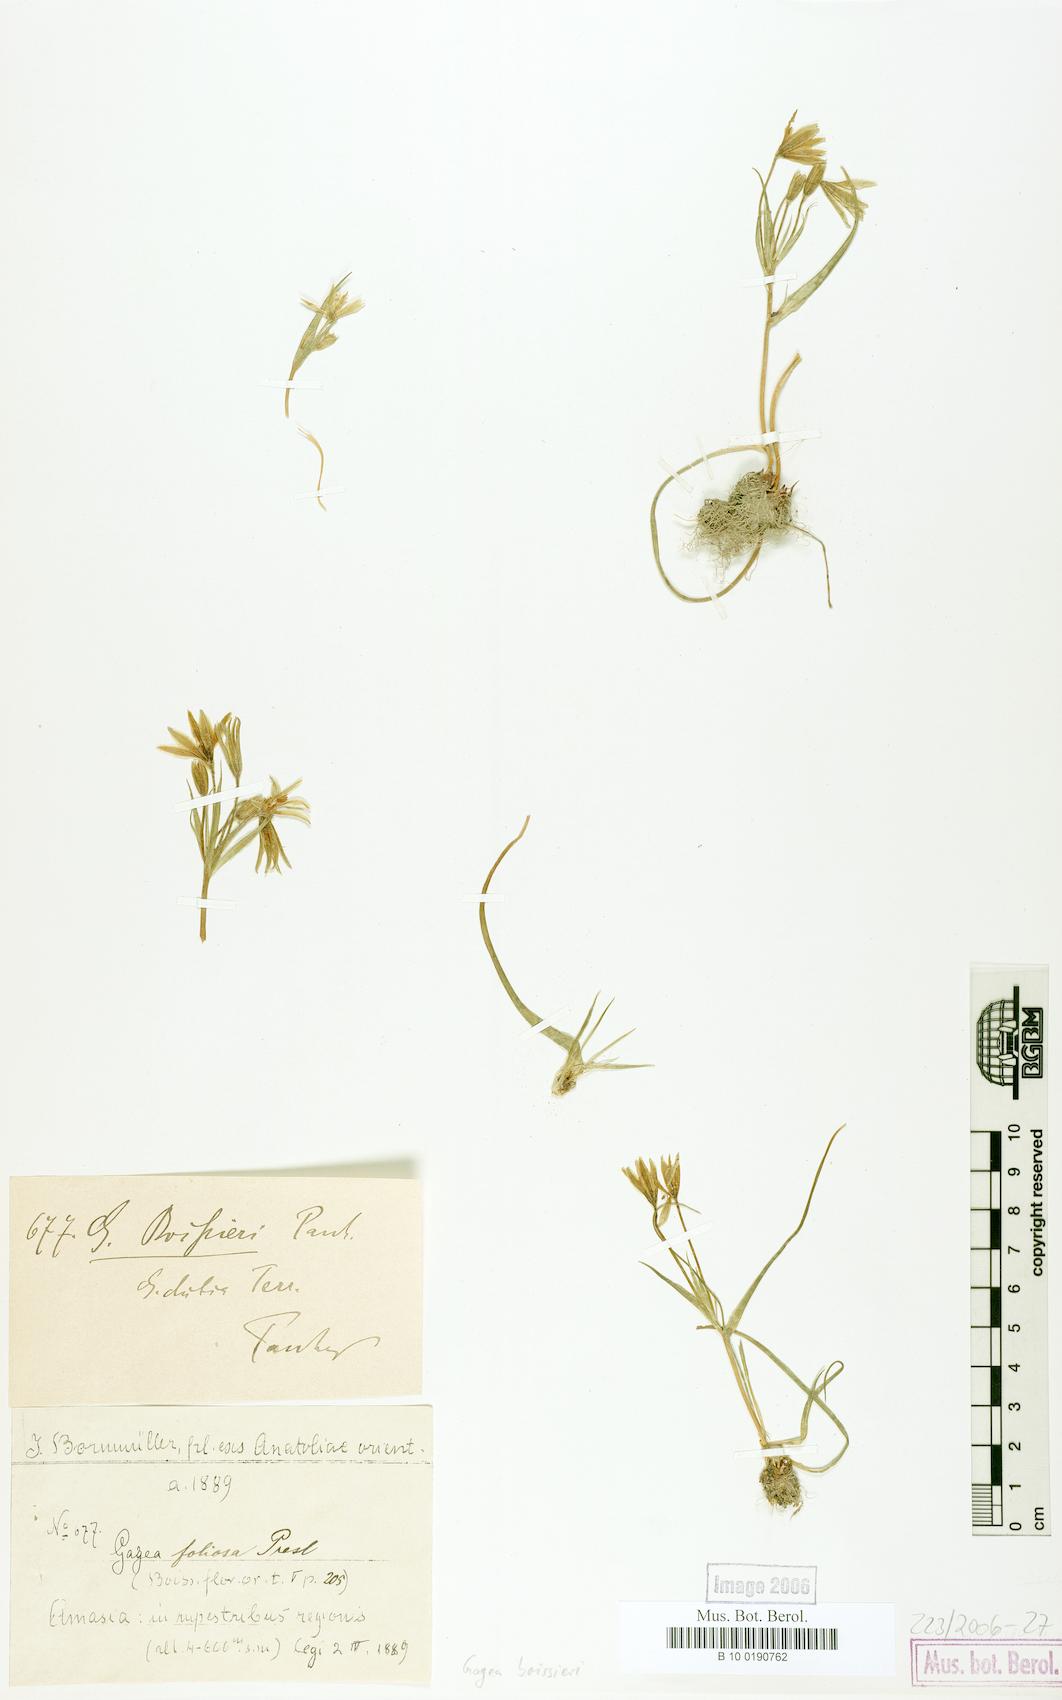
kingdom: Plantae
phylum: Tracheophyta
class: Liliopsida
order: Liliales
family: Liliaceae
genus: Gagea
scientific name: Gagea villosa
